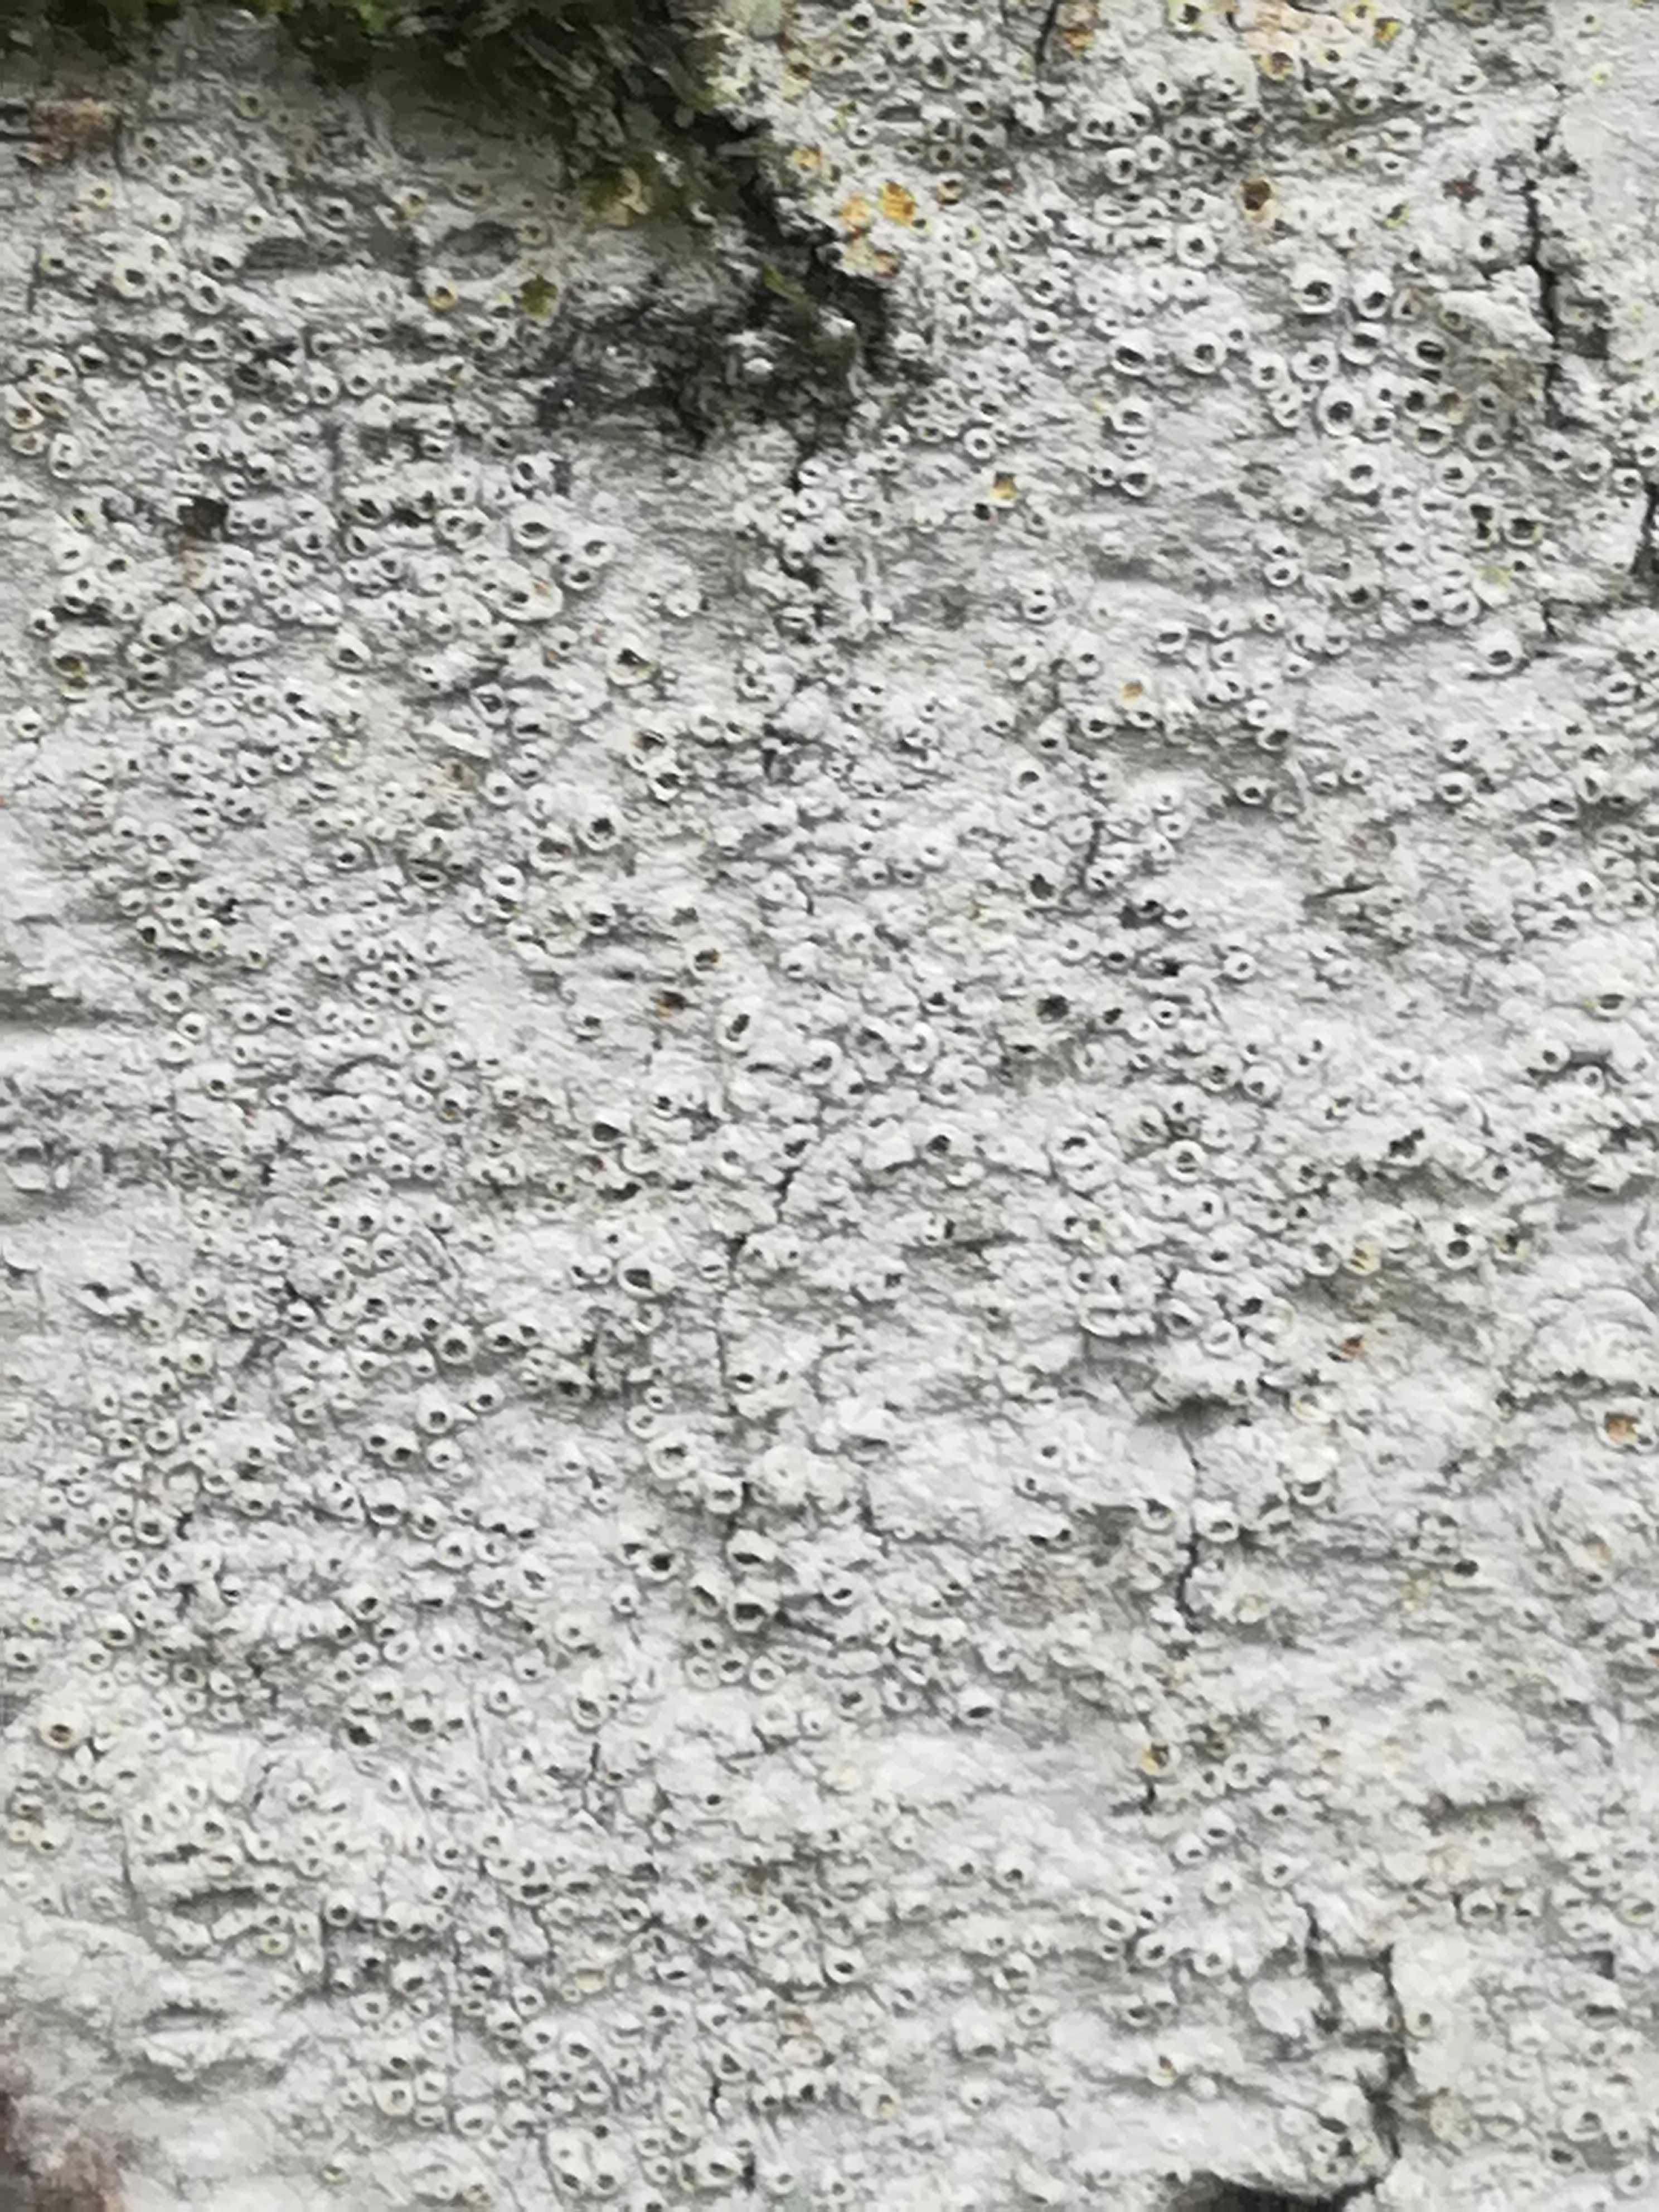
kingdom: Fungi
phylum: Ascomycota
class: Lecanoromycetes
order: Ostropales
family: Graphidaceae
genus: Thelotrema
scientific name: Thelotrema lepadinum
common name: almindelig slørkantlav
